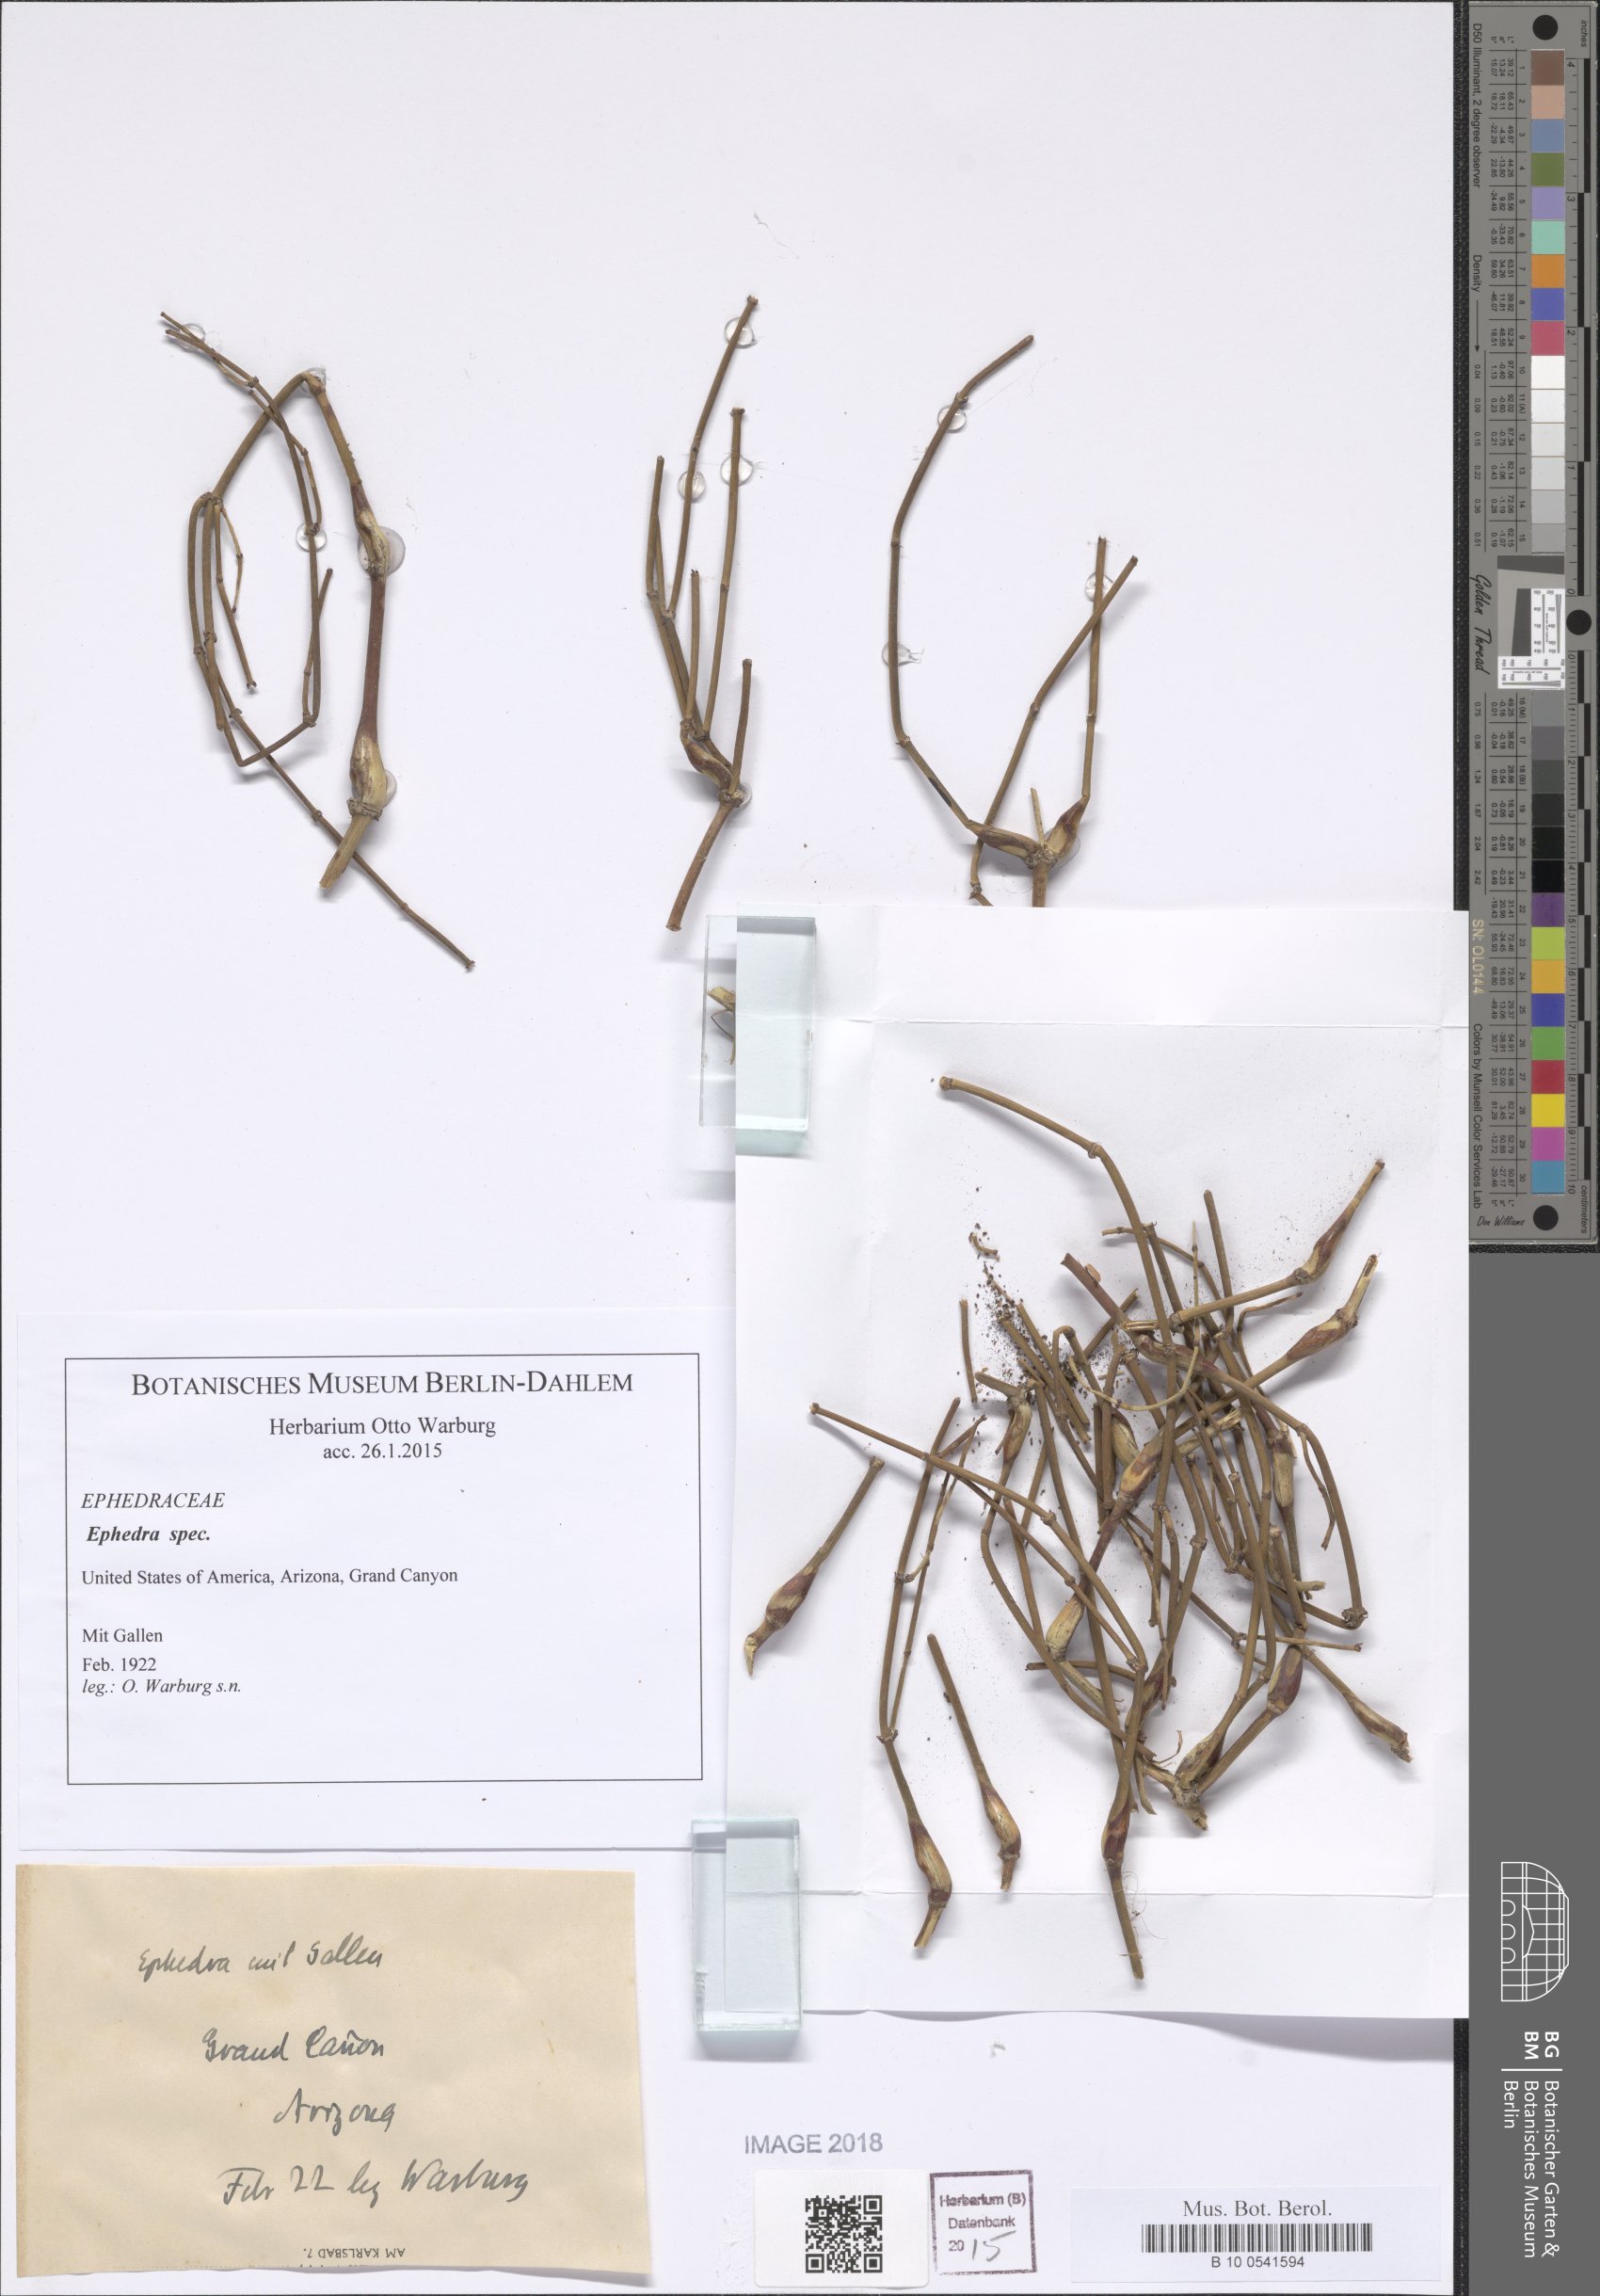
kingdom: Plantae
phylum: Tracheophyta
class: Gnetopsida
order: Ephedrales
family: Ephedraceae
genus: Ephedra
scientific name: Ephedra
